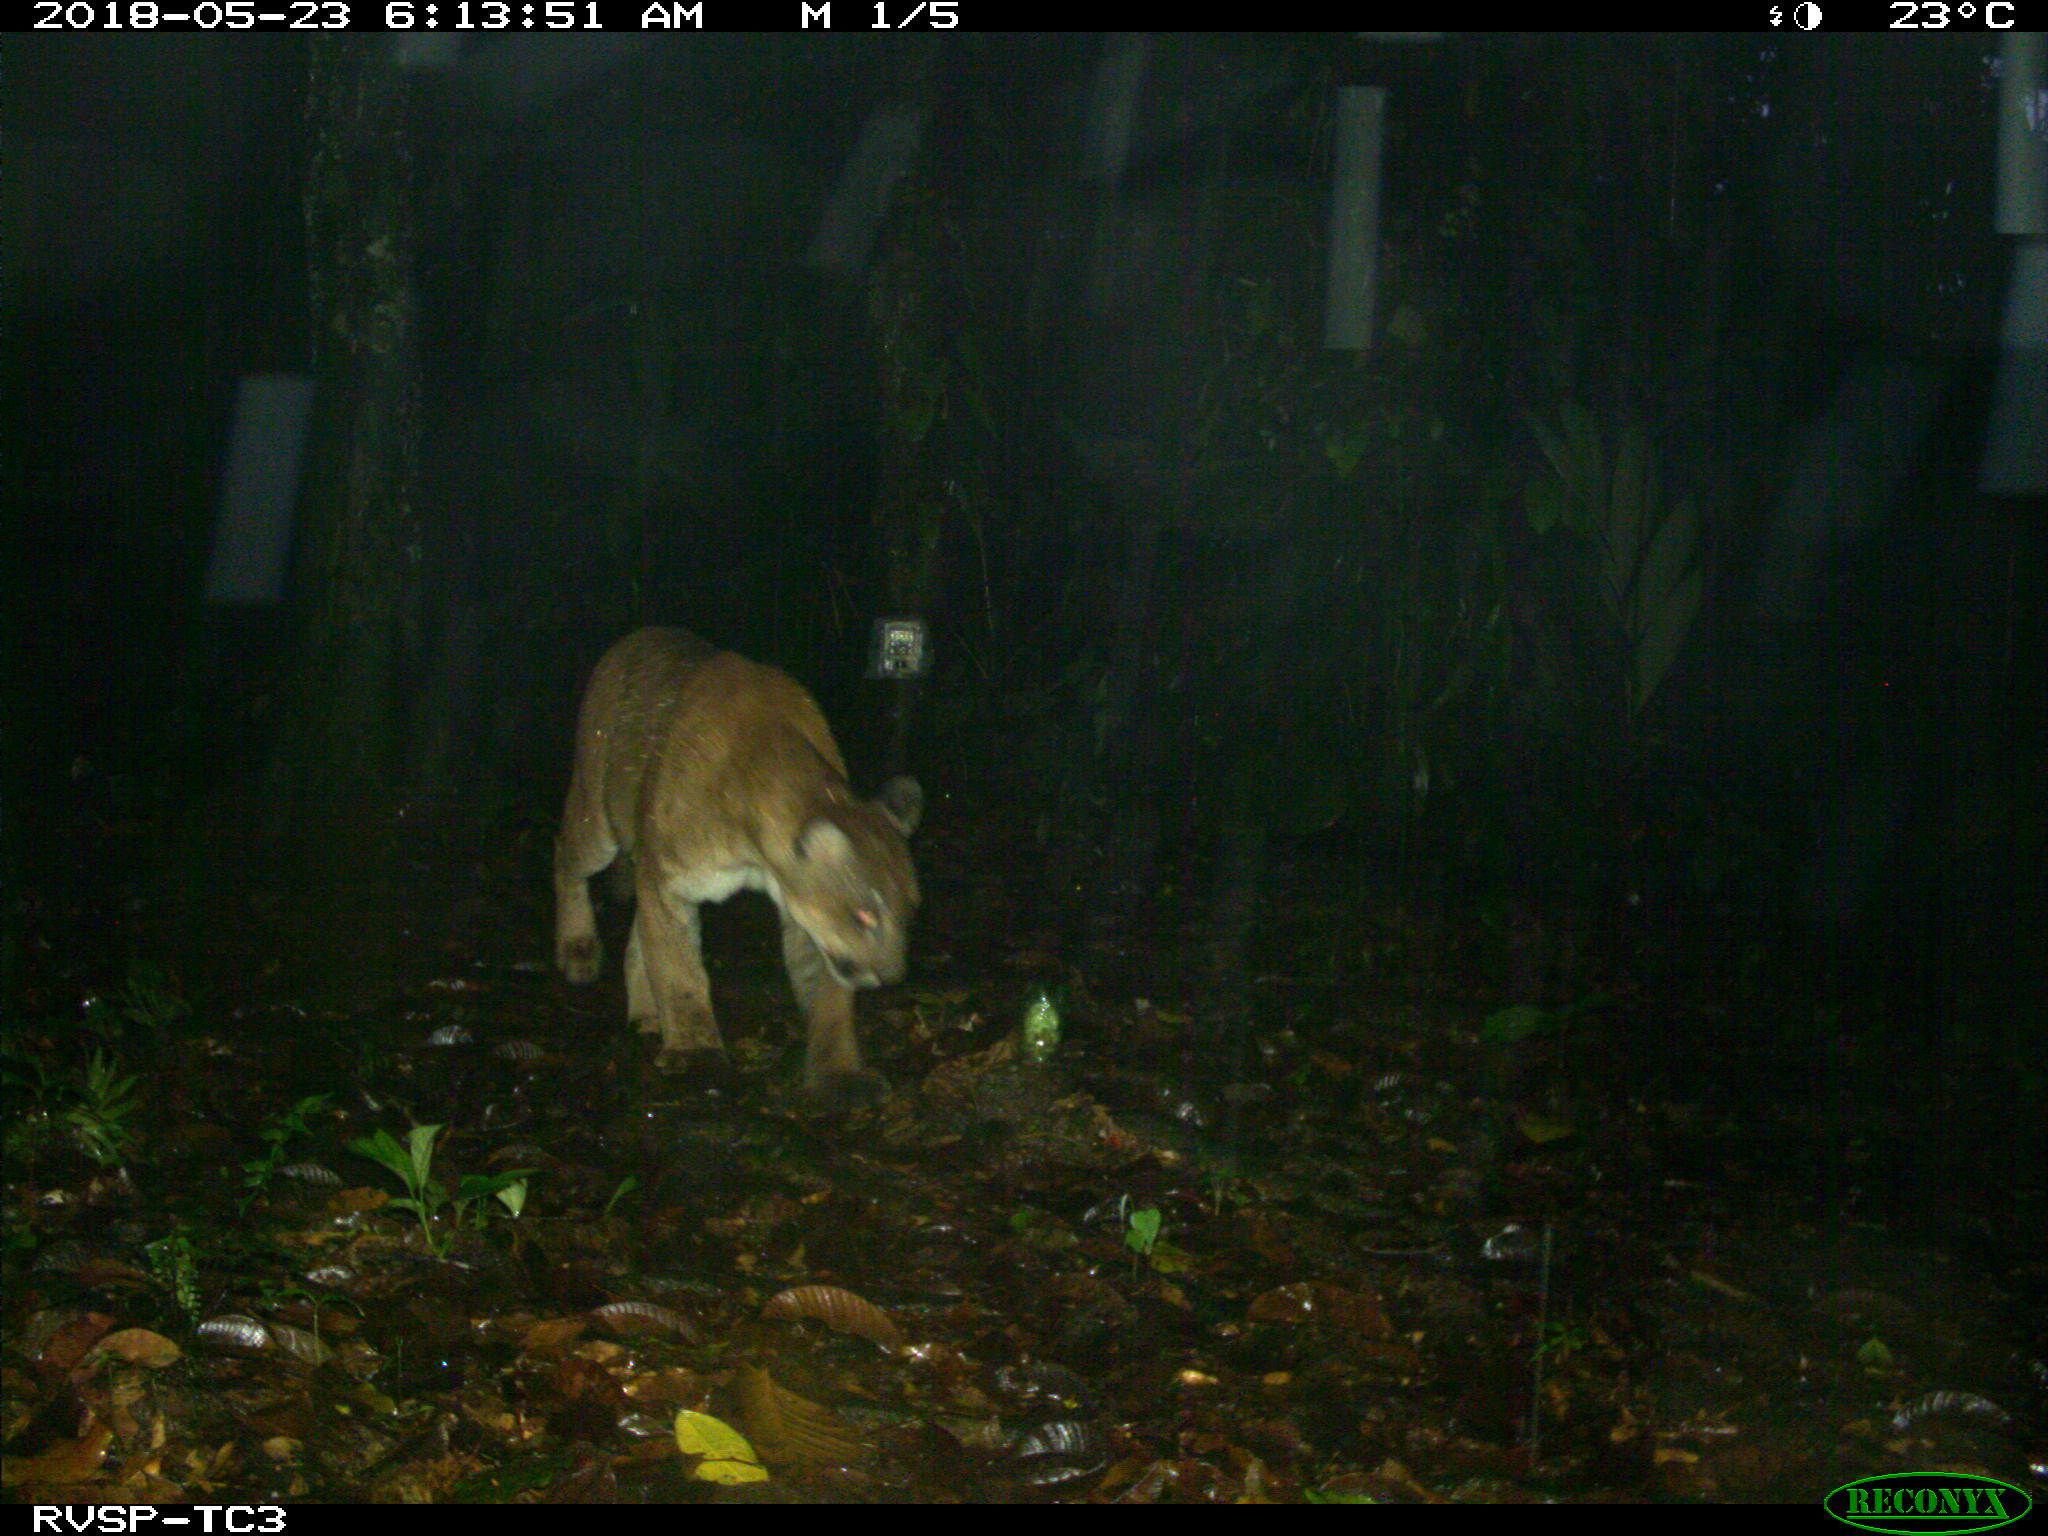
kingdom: Animalia
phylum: Chordata
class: Mammalia
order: Carnivora
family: Felidae
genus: Puma
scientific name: Puma concolor
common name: Puma
